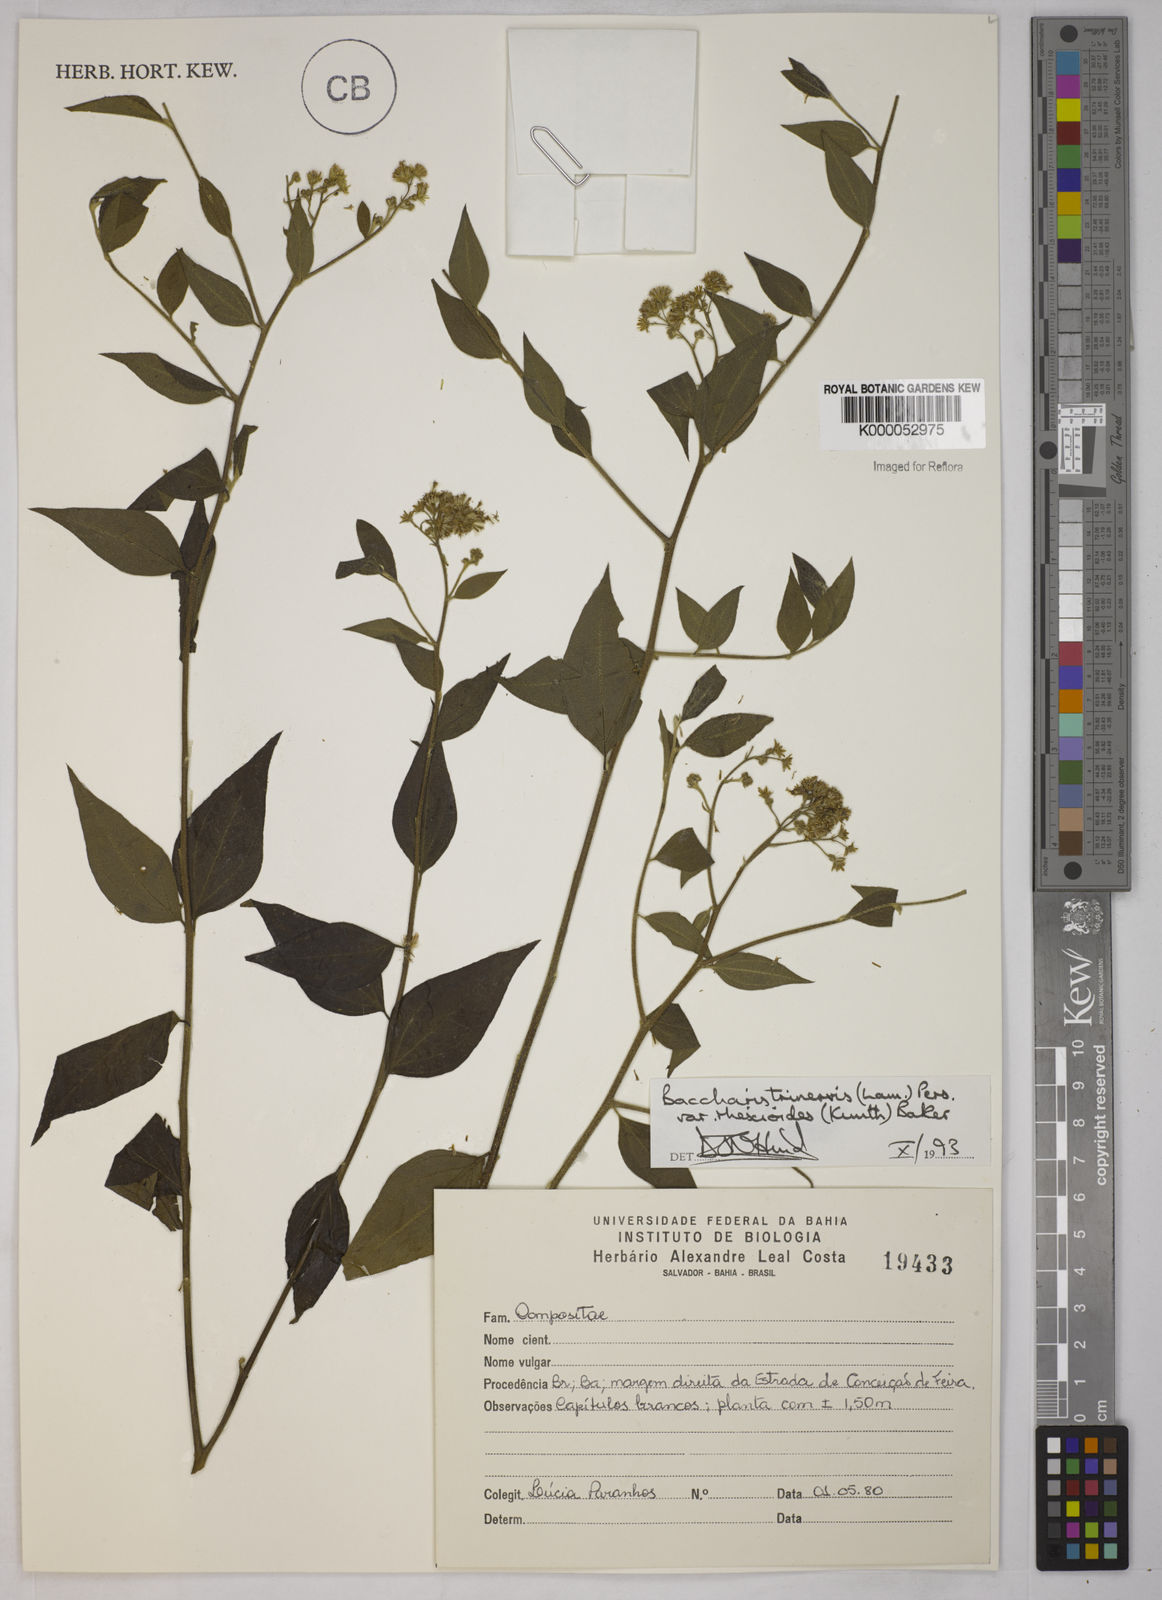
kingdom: Plantae
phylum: Tracheophyta
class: Magnoliopsida
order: Asterales
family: Asteraceae
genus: Baccharis
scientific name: Baccharis trinervis
